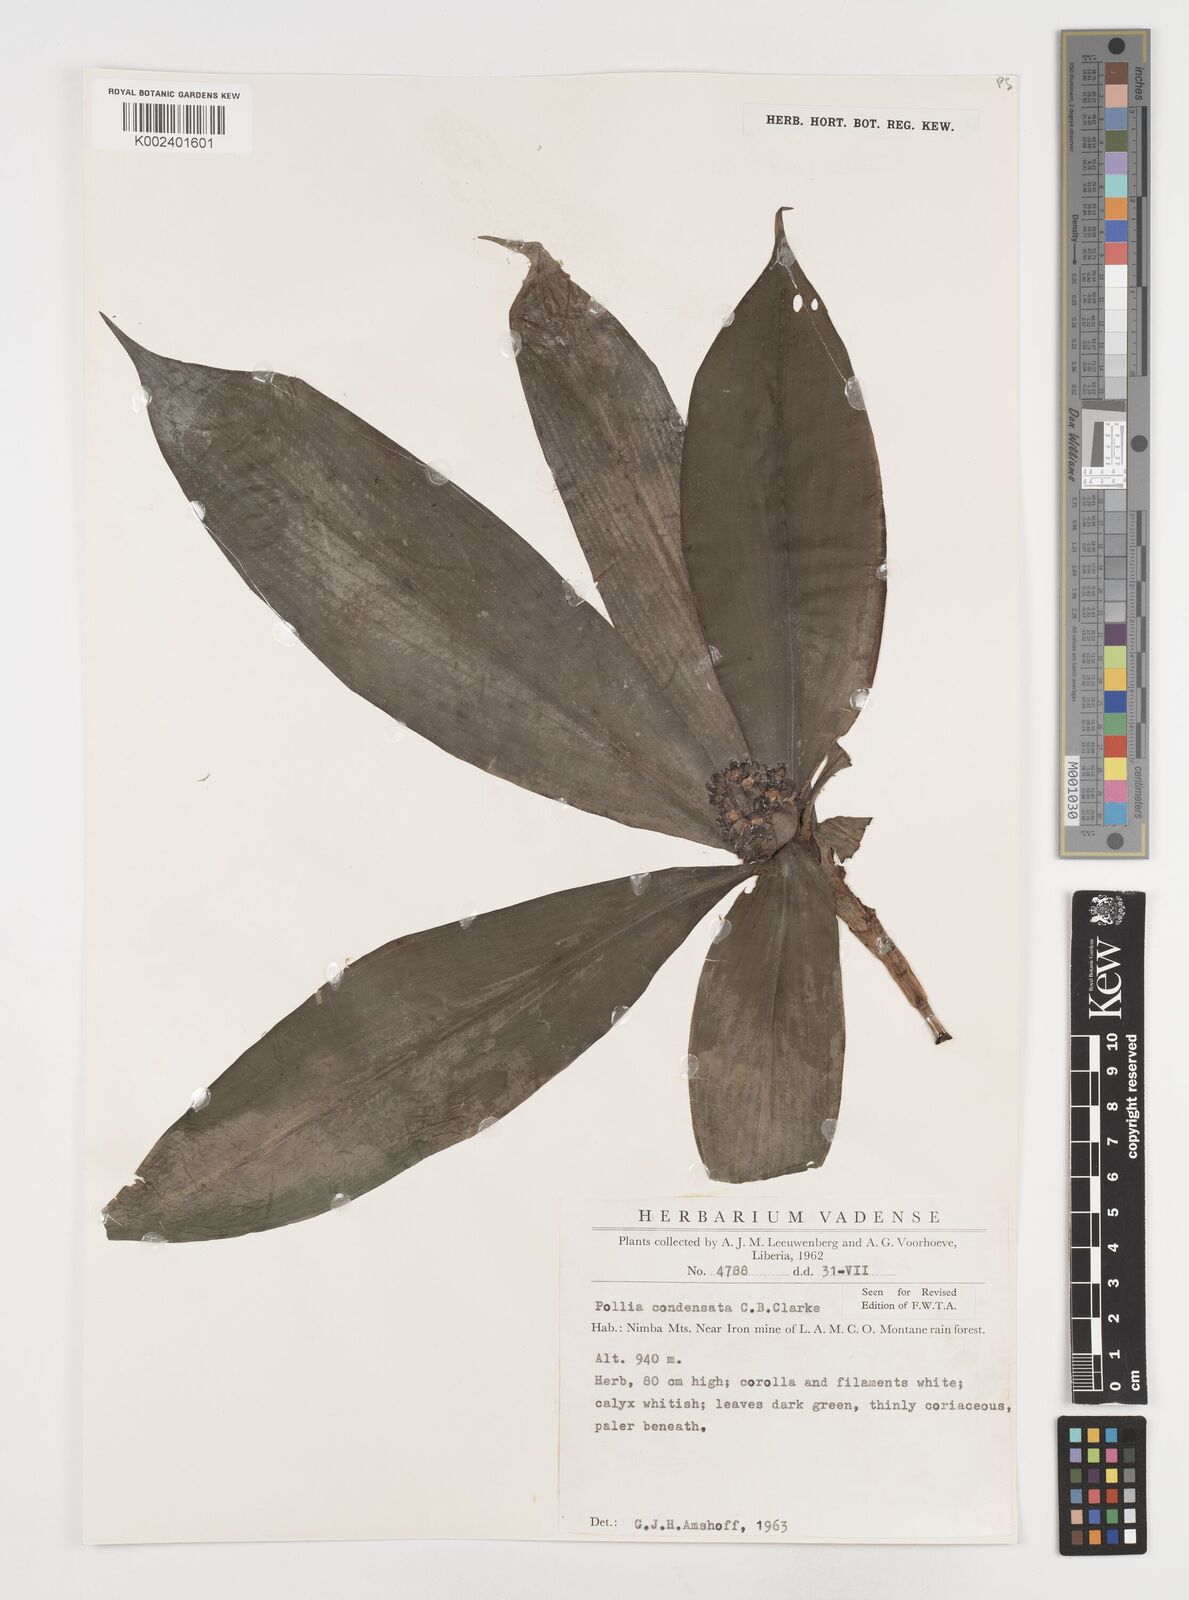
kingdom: Plantae
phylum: Tracheophyta
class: Liliopsida
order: Commelinales
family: Commelinaceae
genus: Pollia
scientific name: Pollia condensata
